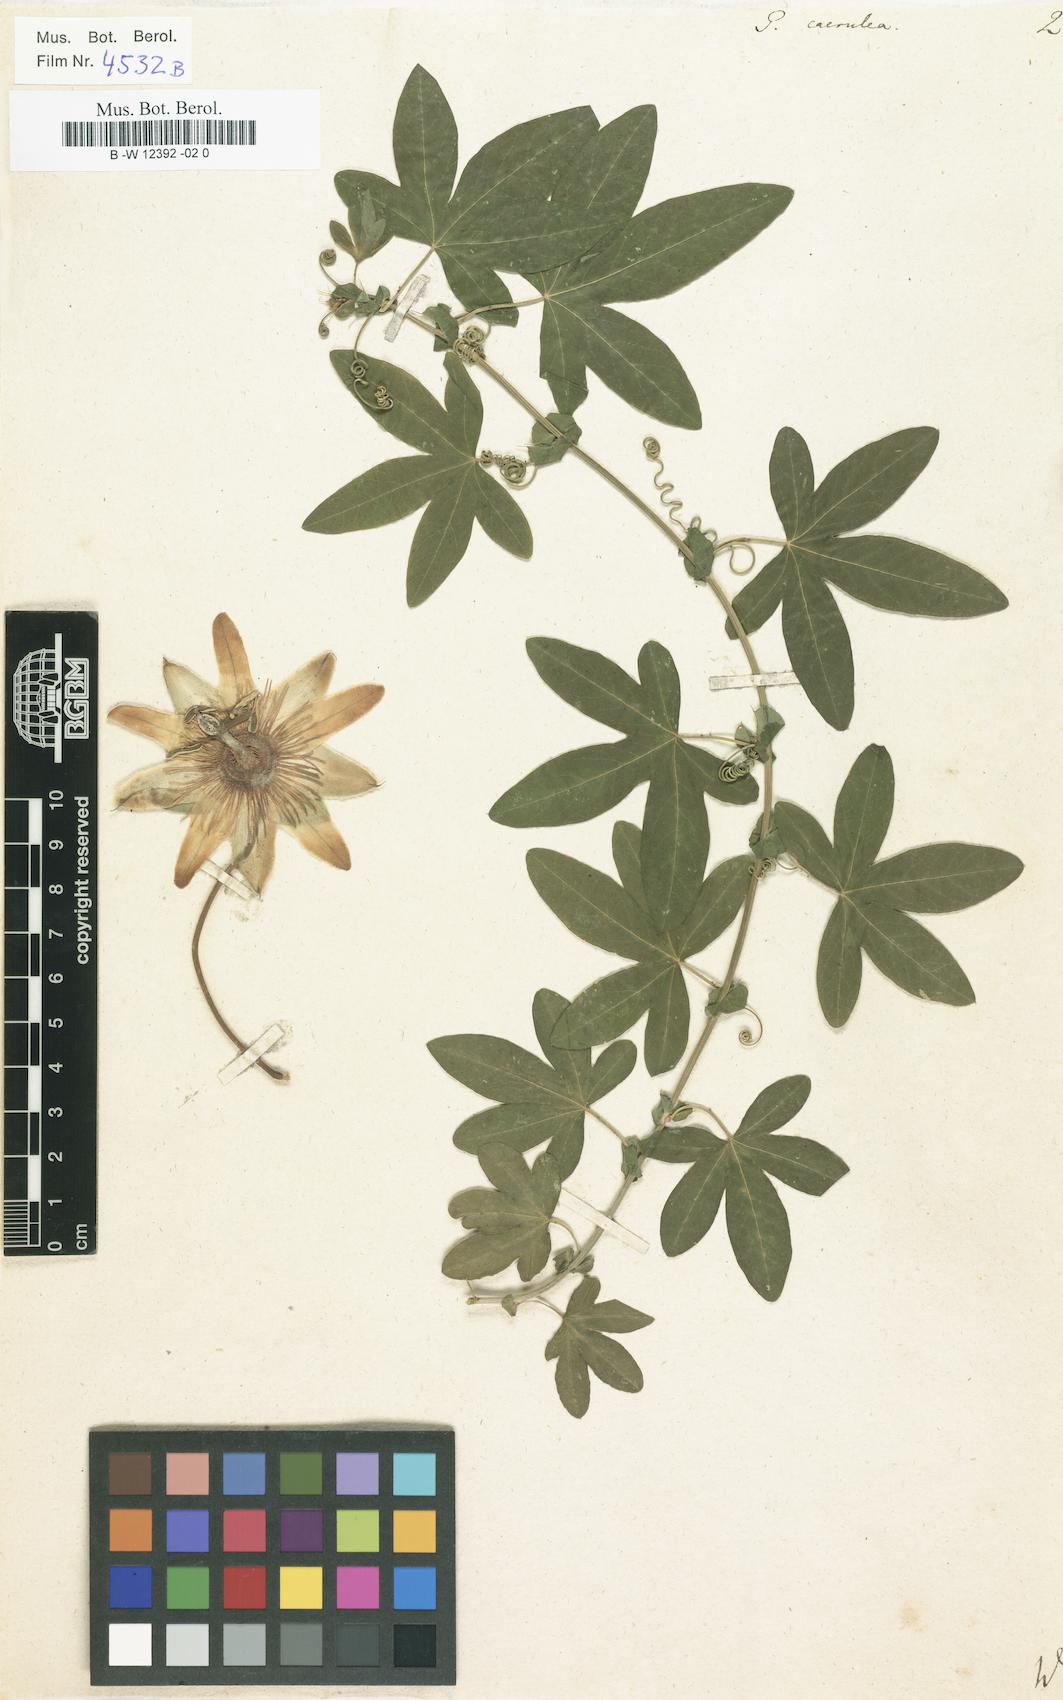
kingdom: Plantae
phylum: Tracheophyta
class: Magnoliopsida
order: Malpighiales
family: Passifloraceae
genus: Passiflora
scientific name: Passiflora caerulea
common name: Blue passionflower
